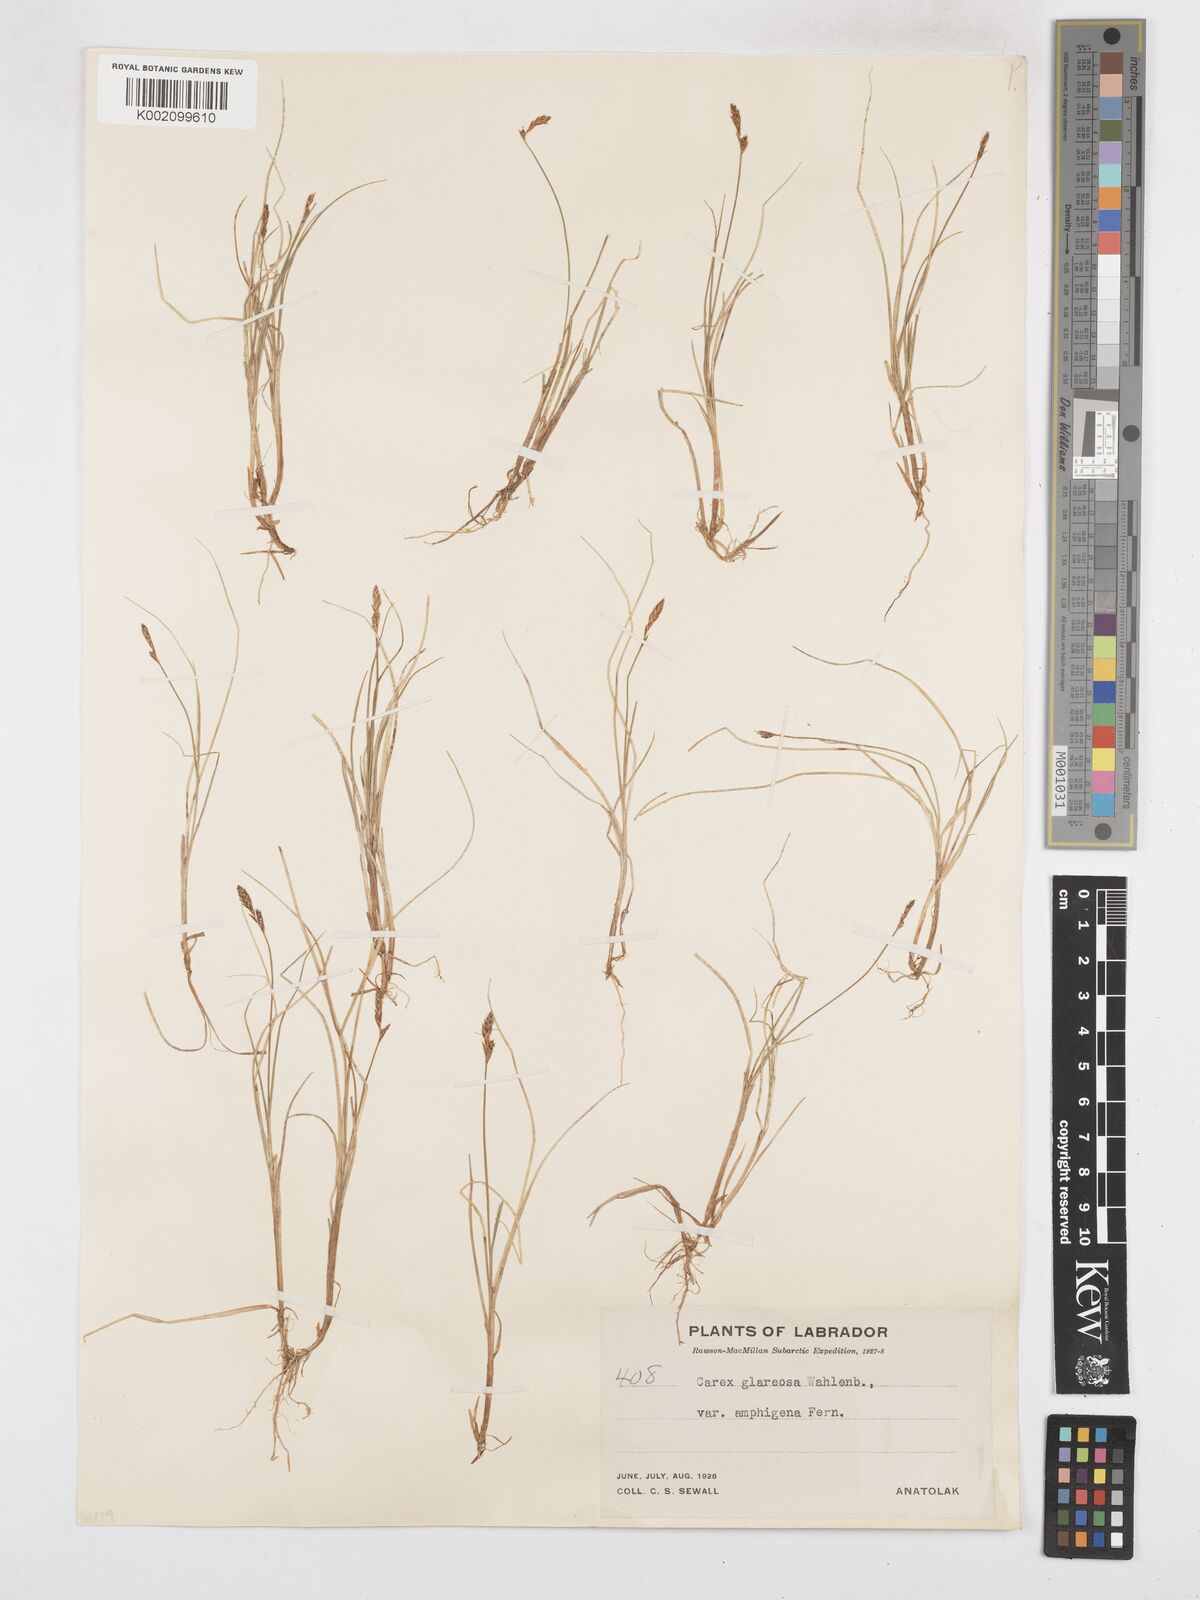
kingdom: Plantae
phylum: Tracheophyta
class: Liliopsida
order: Poales
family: Cyperaceae
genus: Carex
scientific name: Carex glareosa
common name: Clustered sedge
